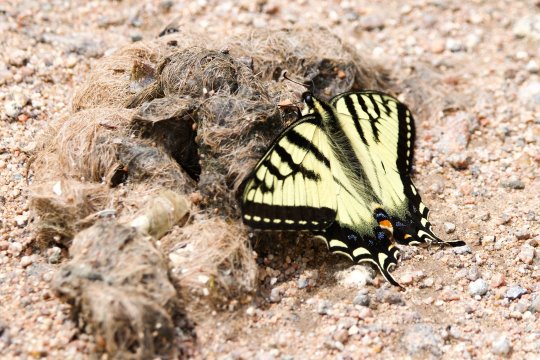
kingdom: Animalia
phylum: Arthropoda
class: Insecta
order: Lepidoptera
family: Papilionidae
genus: Pterourus
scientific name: Pterourus canadensis
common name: Canadian Tiger Swallowtail
